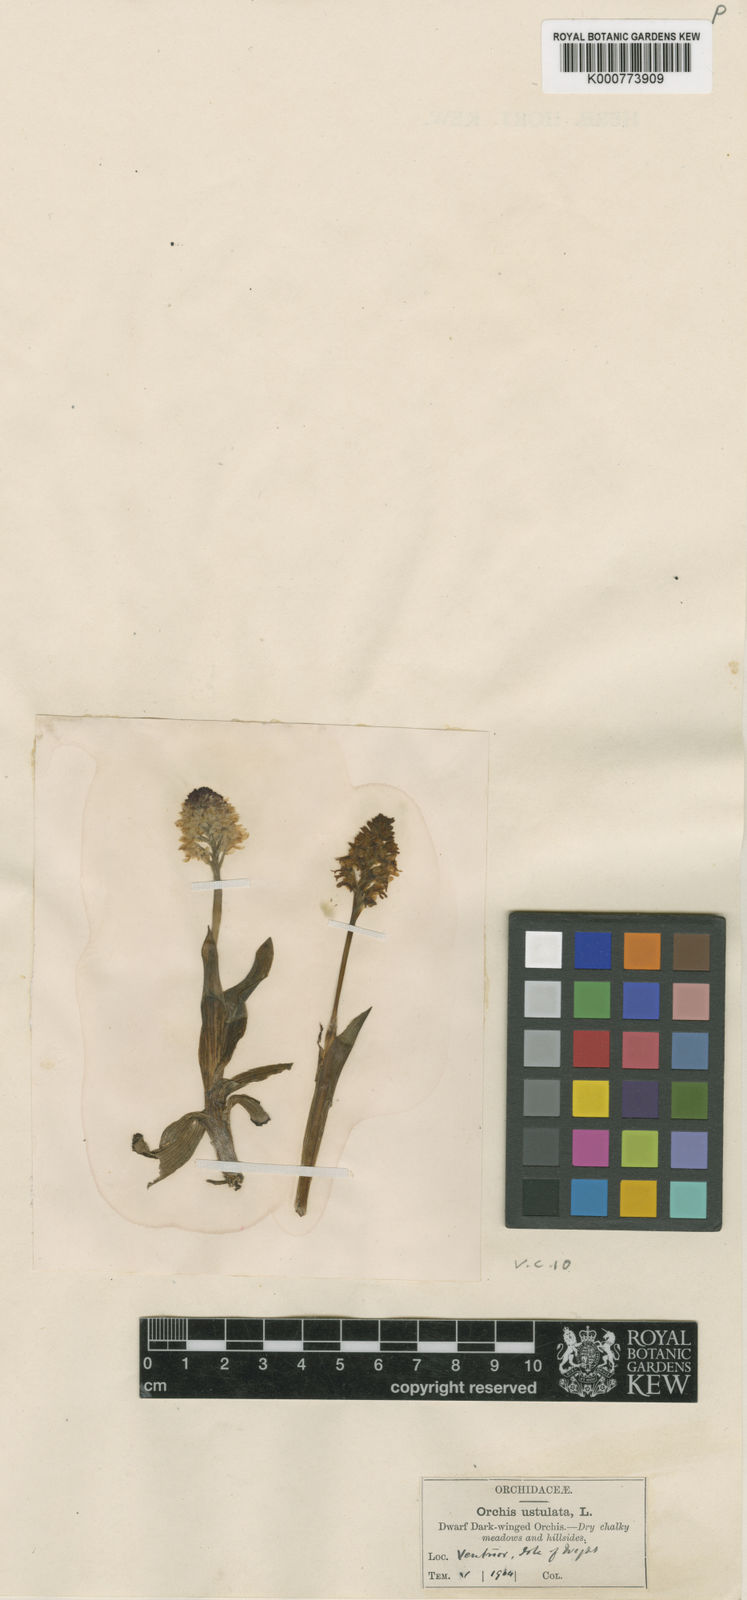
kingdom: Plantae
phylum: Tracheophyta
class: Liliopsida
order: Asparagales
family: Orchidaceae
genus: Neotinea
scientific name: Neotinea ustulata
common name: Burnt orchid
